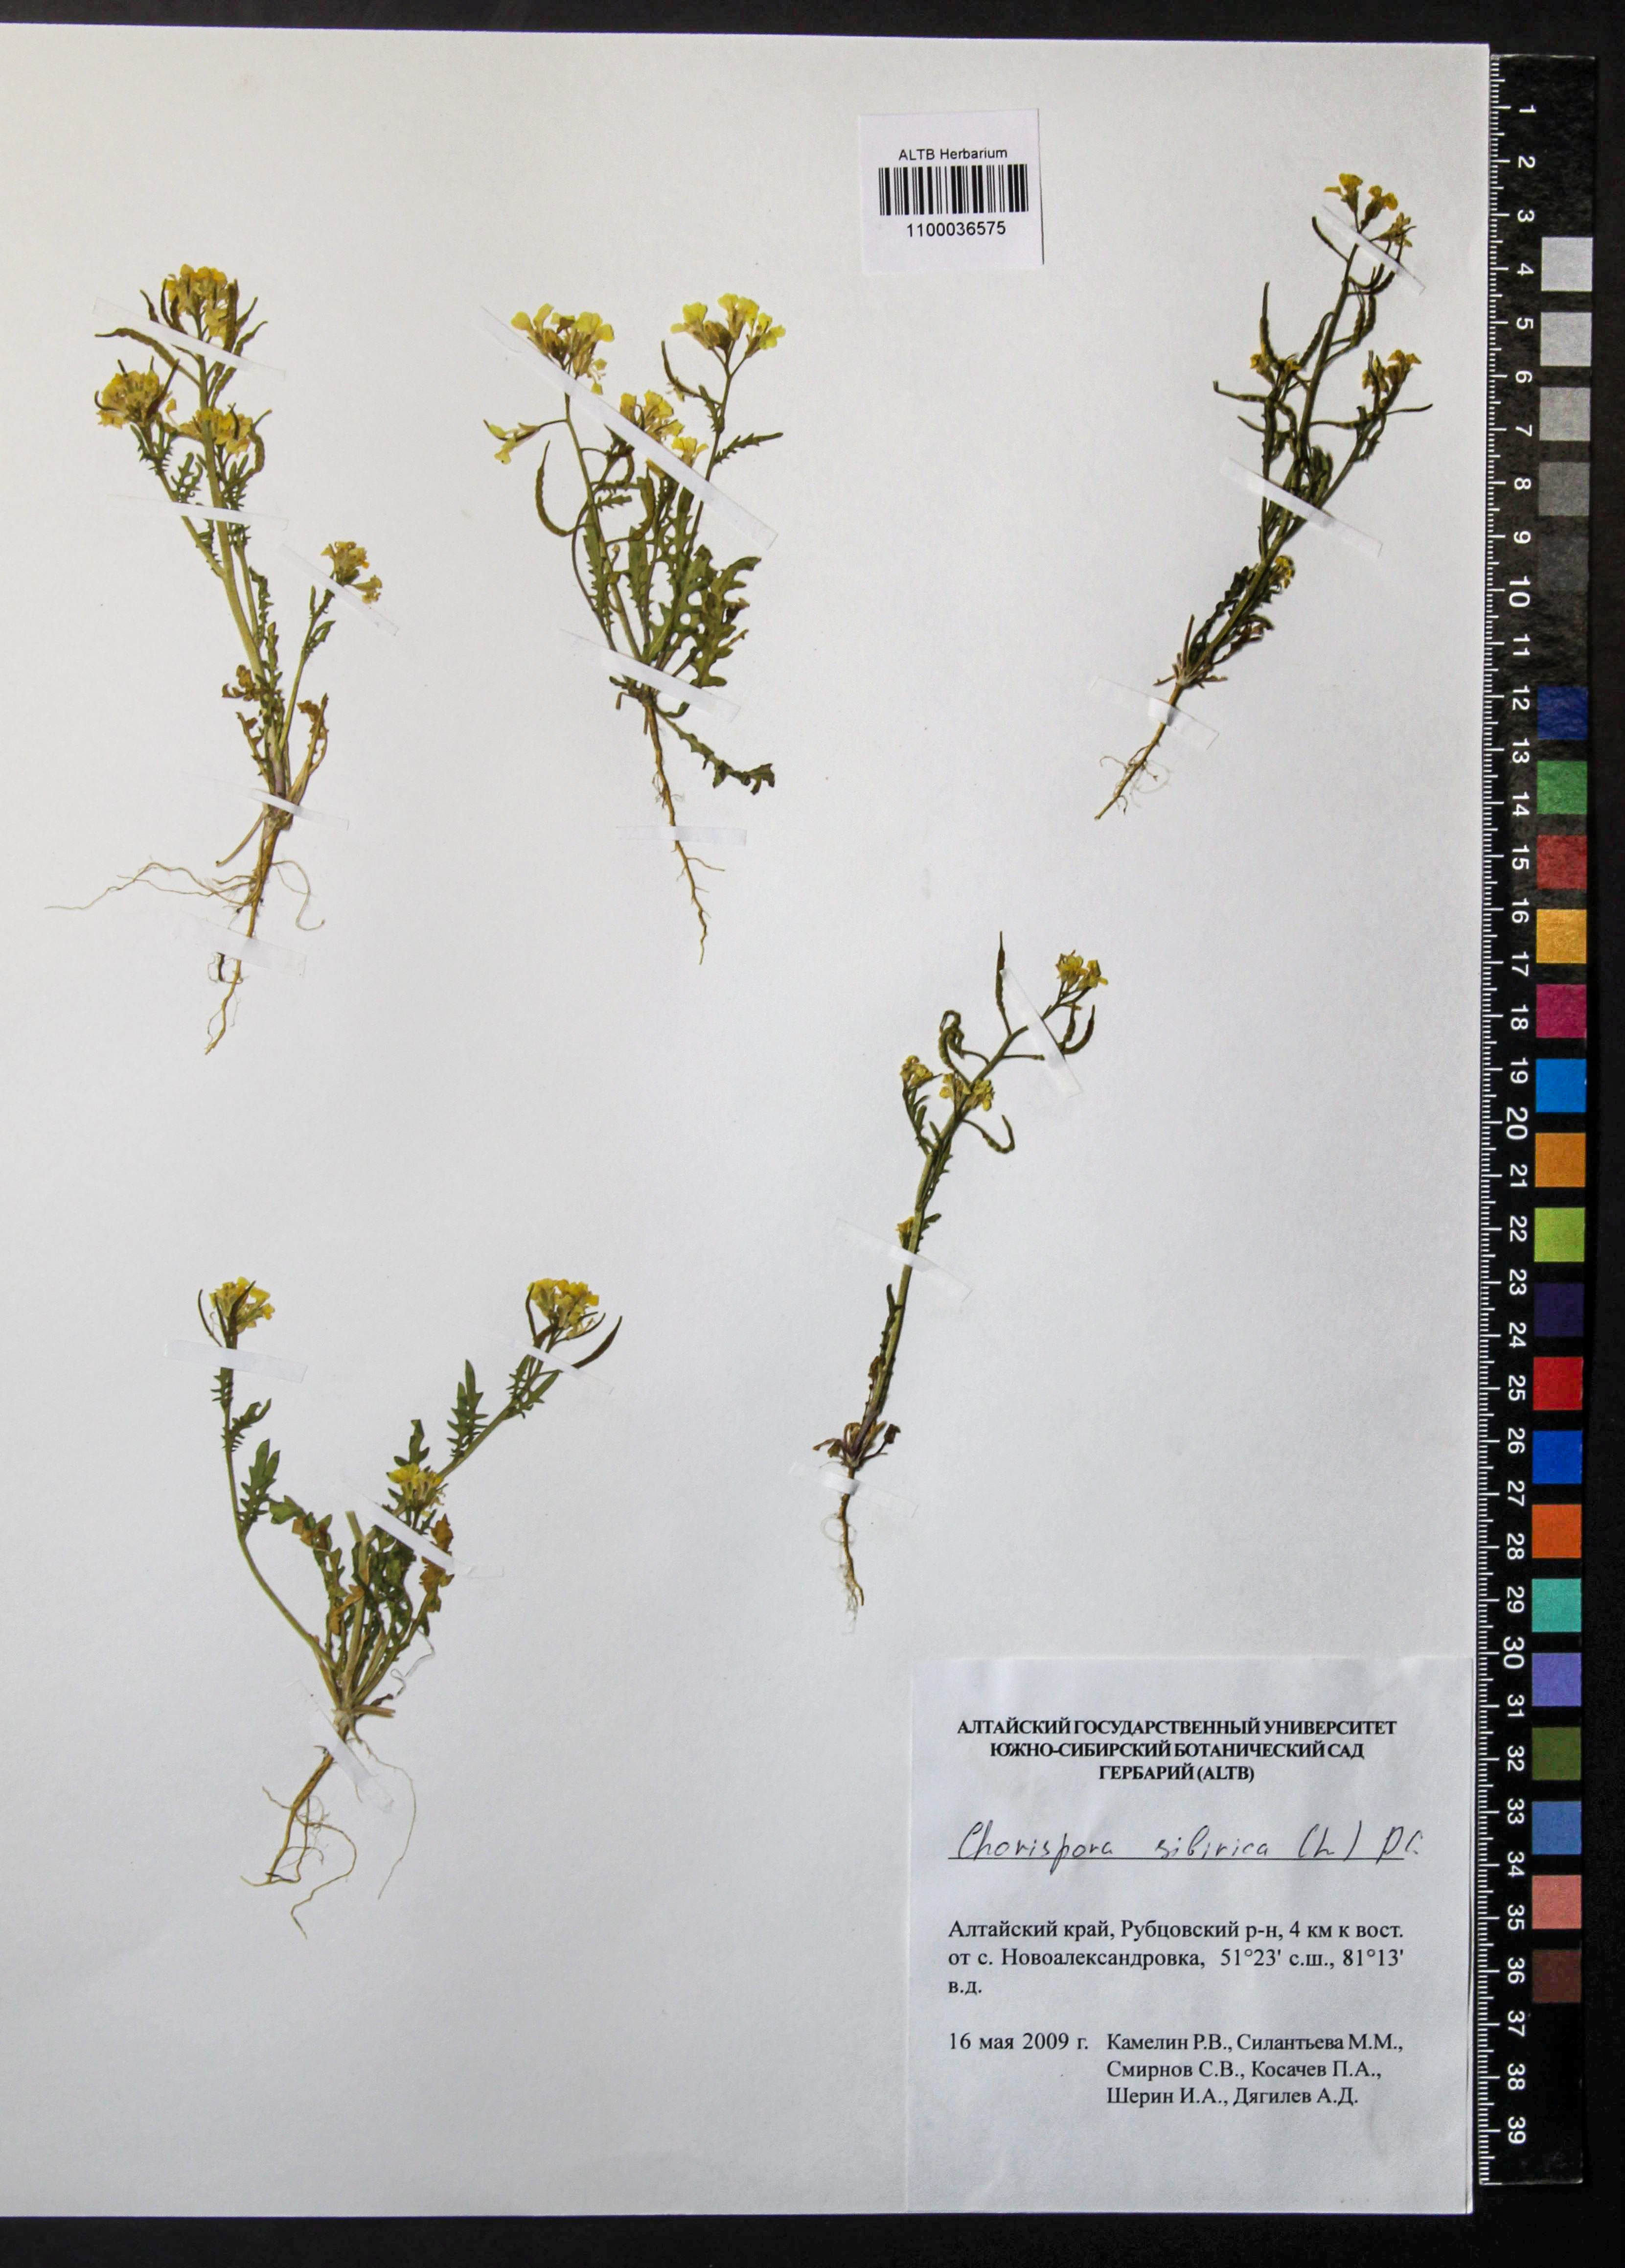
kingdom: Plantae
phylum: Tracheophyta
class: Magnoliopsida
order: Brassicales
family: Brassicaceae
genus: Chorispora
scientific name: Chorispora sibirica
